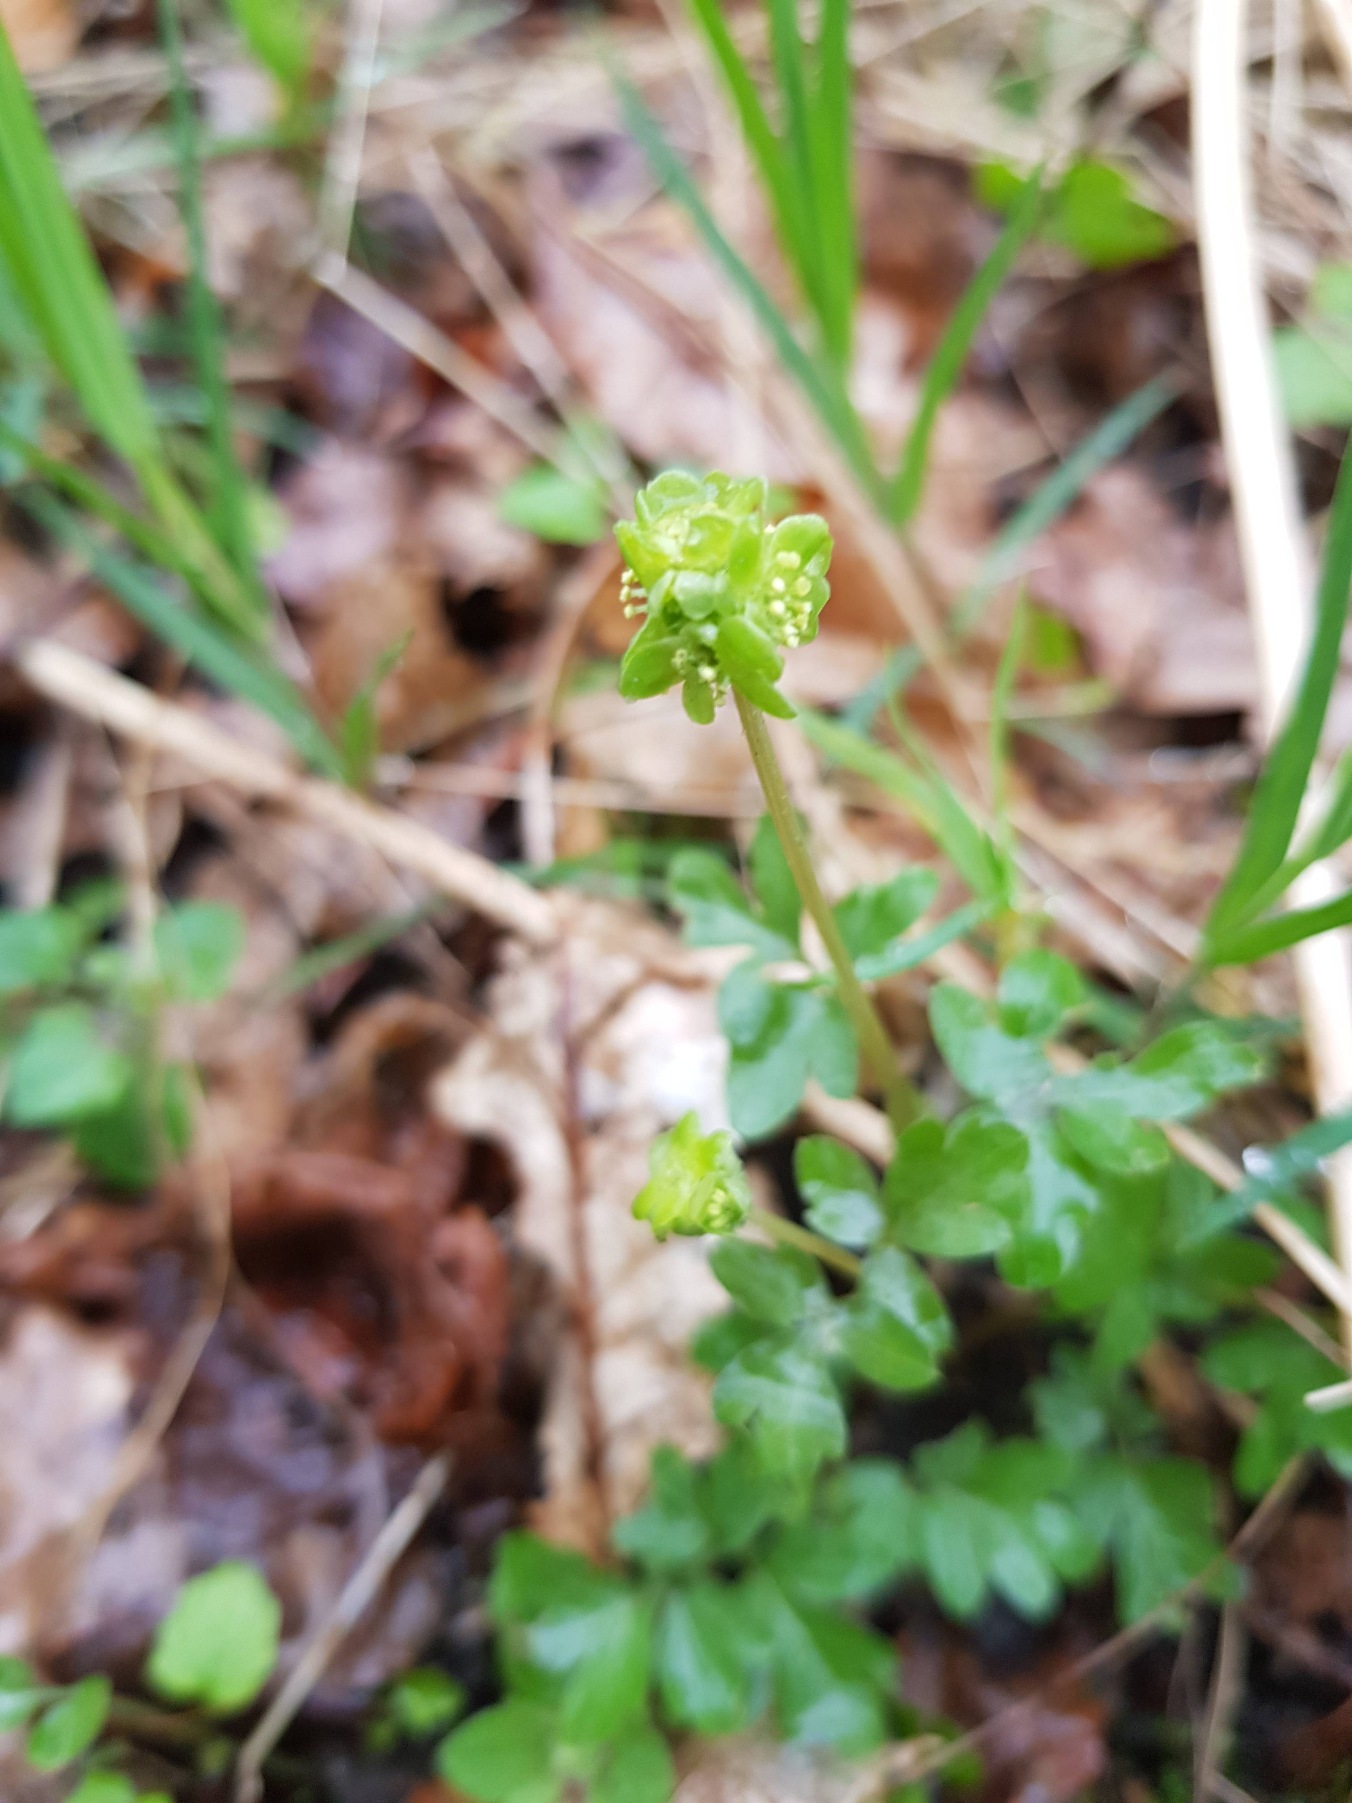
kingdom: Plantae
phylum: Tracheophyta
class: Magnoliopsida
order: Dipsacales
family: Viburnaceae
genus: Adoxa
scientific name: Adoxa moschatellina
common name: Desmerurt
